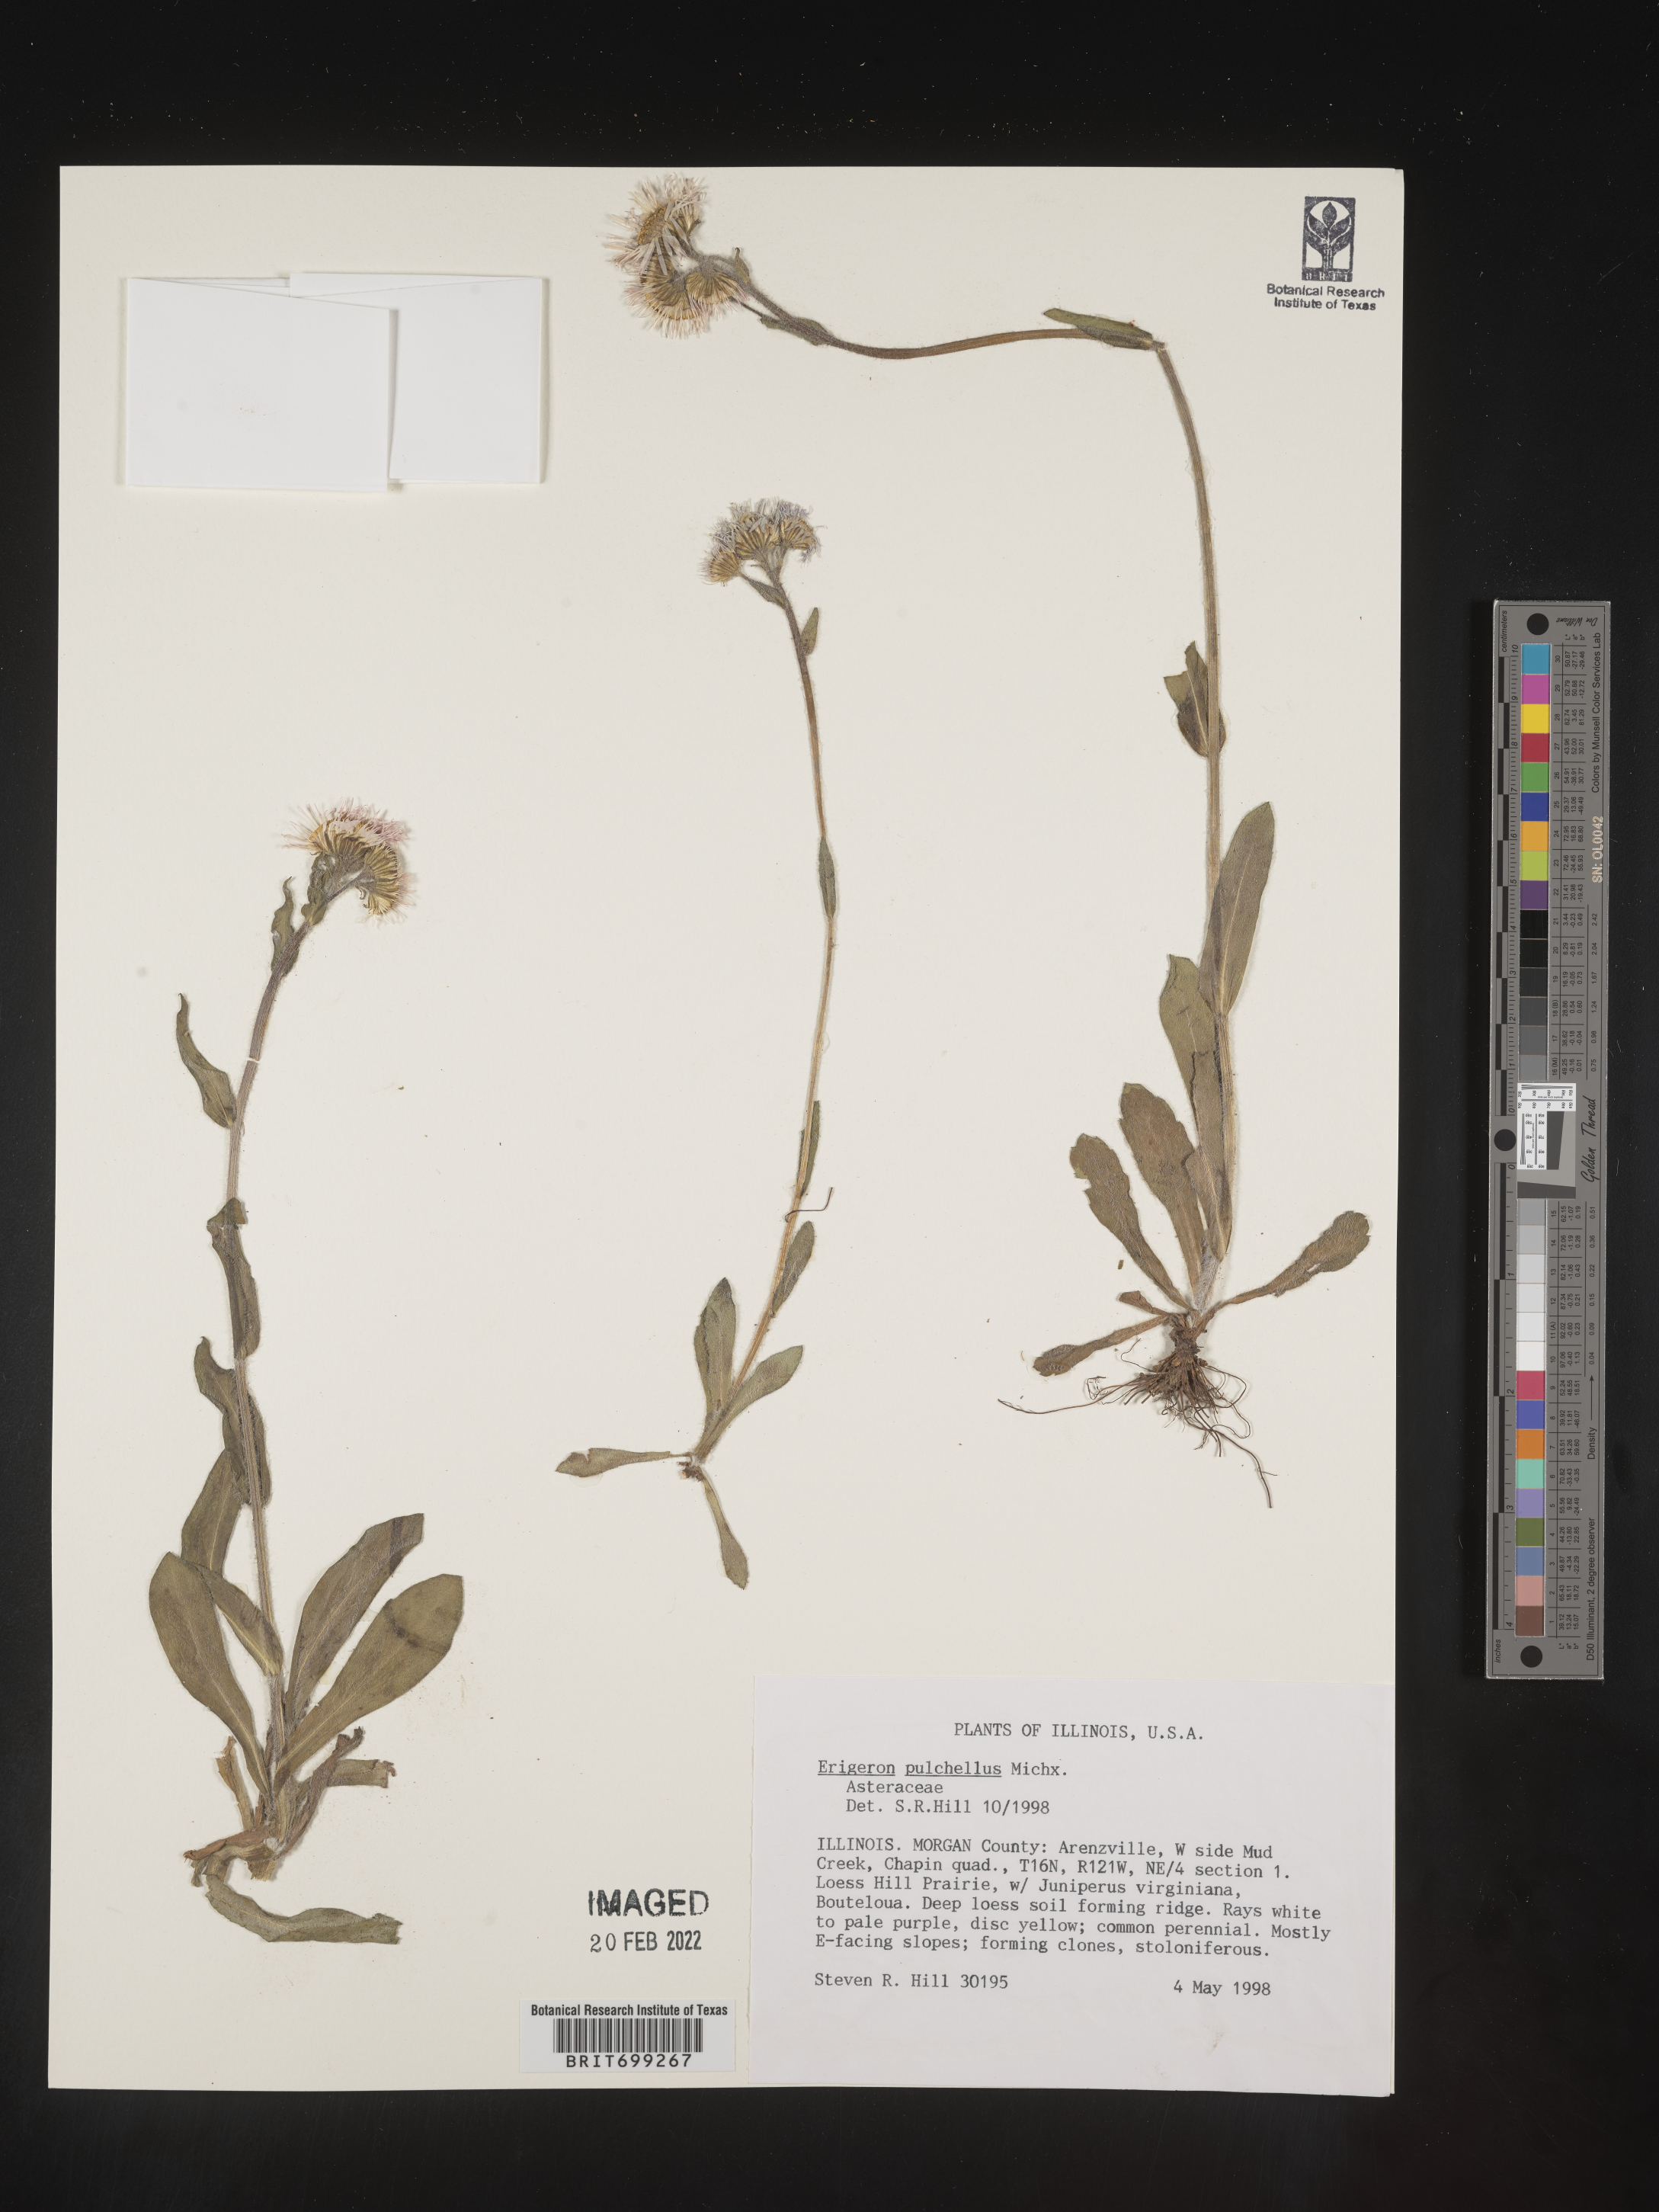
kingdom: Plantae
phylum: Tracheophyta
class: Magnoliopsida
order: Asterales
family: Asteraceae
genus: Erigeron
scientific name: Erigeron pulchellus
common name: Hairy fleabane
